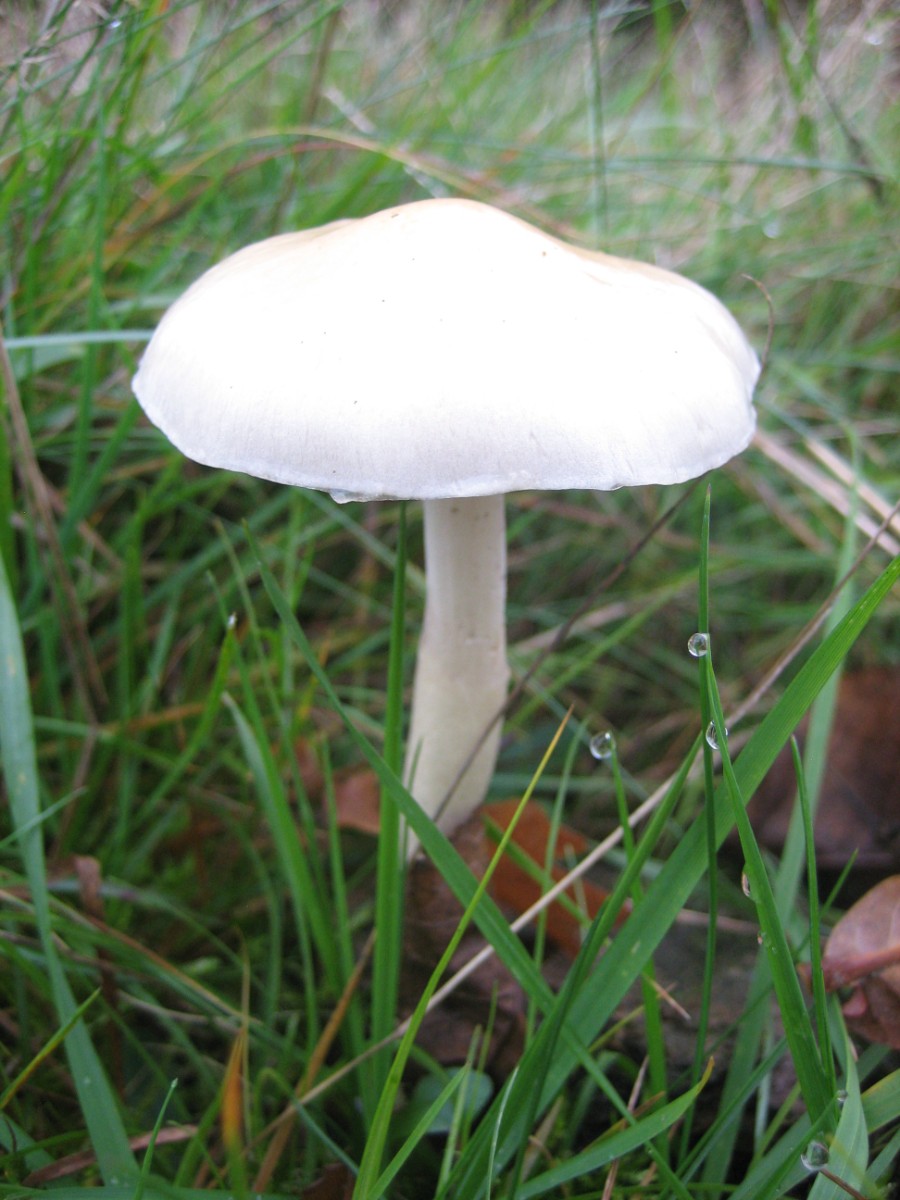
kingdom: Fungi
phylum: Basidiomycota
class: Agaricomycetes
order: Agaricales
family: Strophariaceae
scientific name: Strophariaceae
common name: bredbladfamilien
